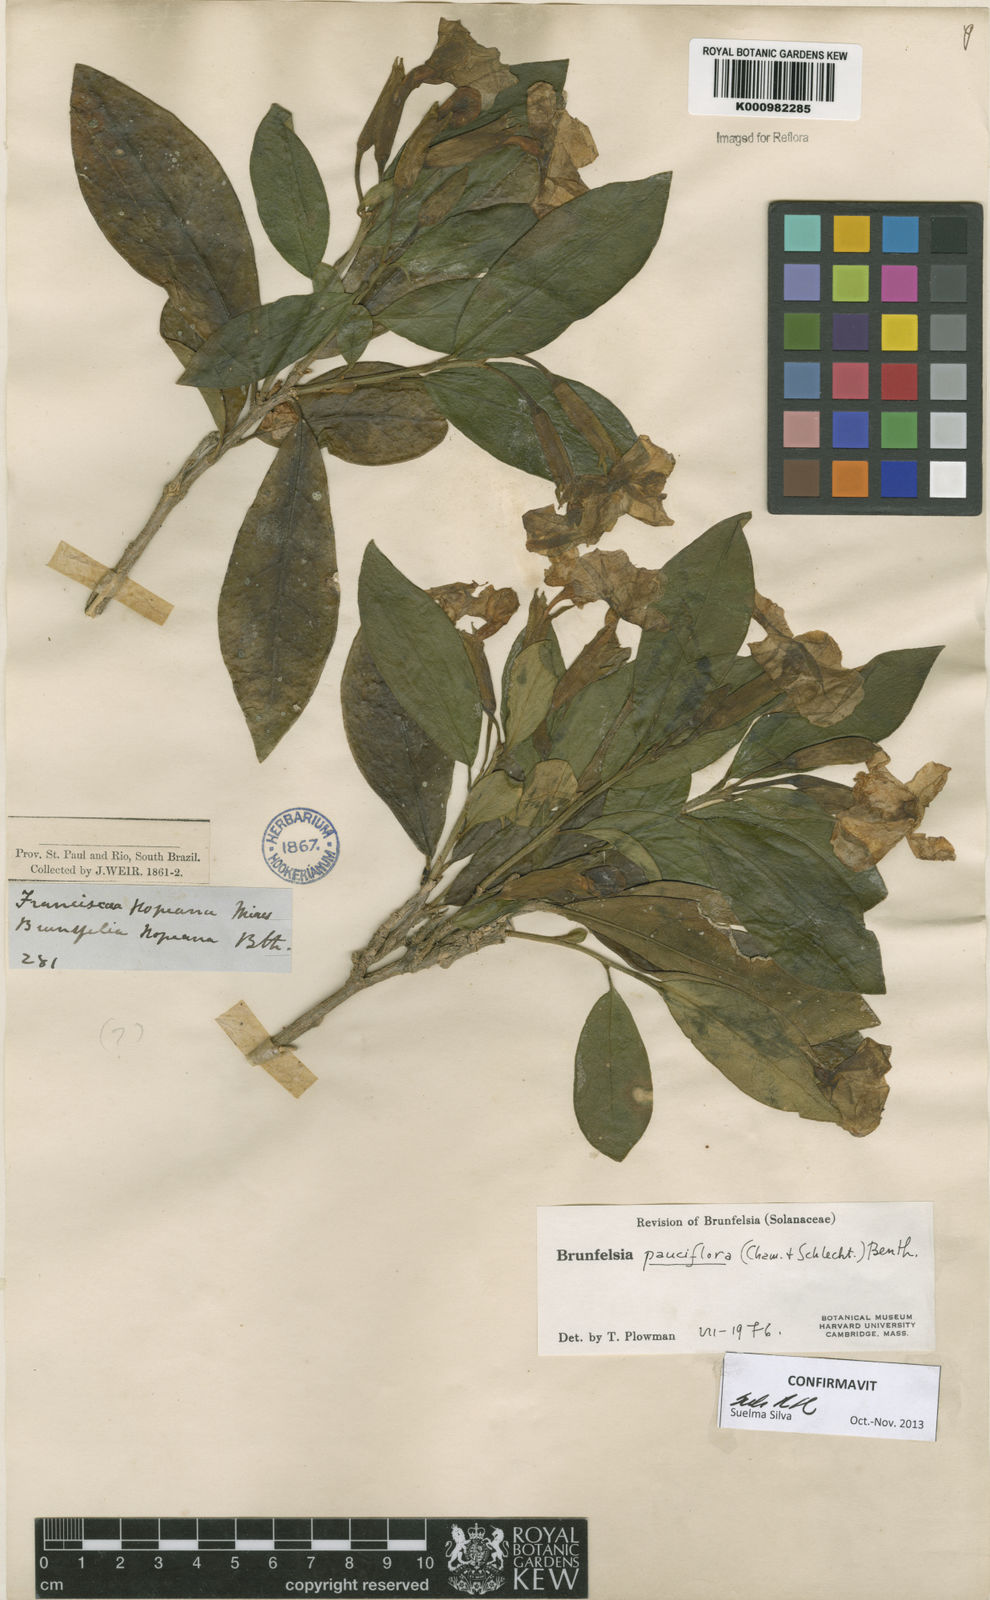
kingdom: Plantae
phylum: Tracheophyta
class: Magnoliopsida
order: Solanales
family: Solanaceae
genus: Brunfelsia
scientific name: Brunfelsia pauciflora
